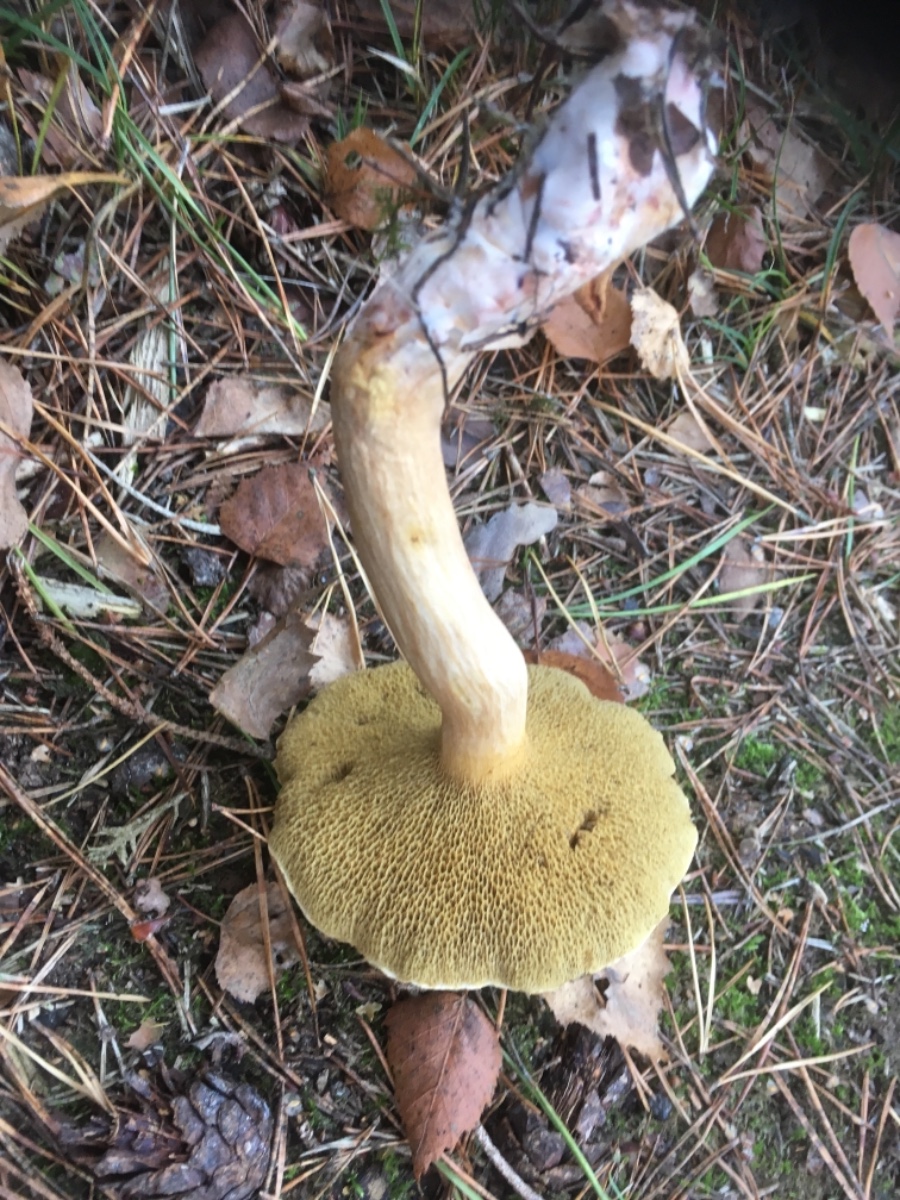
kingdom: Fungi
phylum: Basidiomycota
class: Agaricomycetes
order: Boletales
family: Suillaceae
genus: Suillus
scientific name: Suillus bovinus
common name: grovporet slimrørhat
